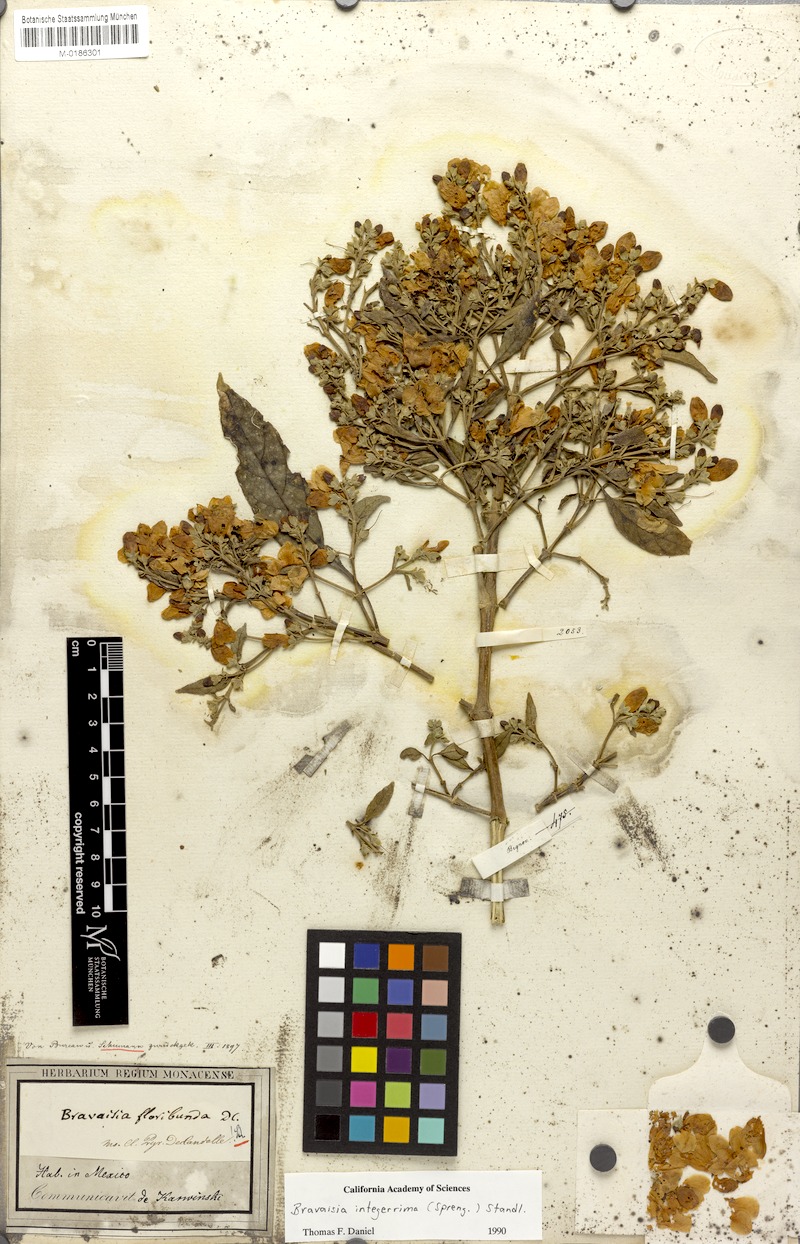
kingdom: Plantae
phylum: Tracheophyta
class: Magnoliopsida
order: Lamiales
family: Acanthaceae
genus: Bravaisia
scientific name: Bravaisia integerrima
